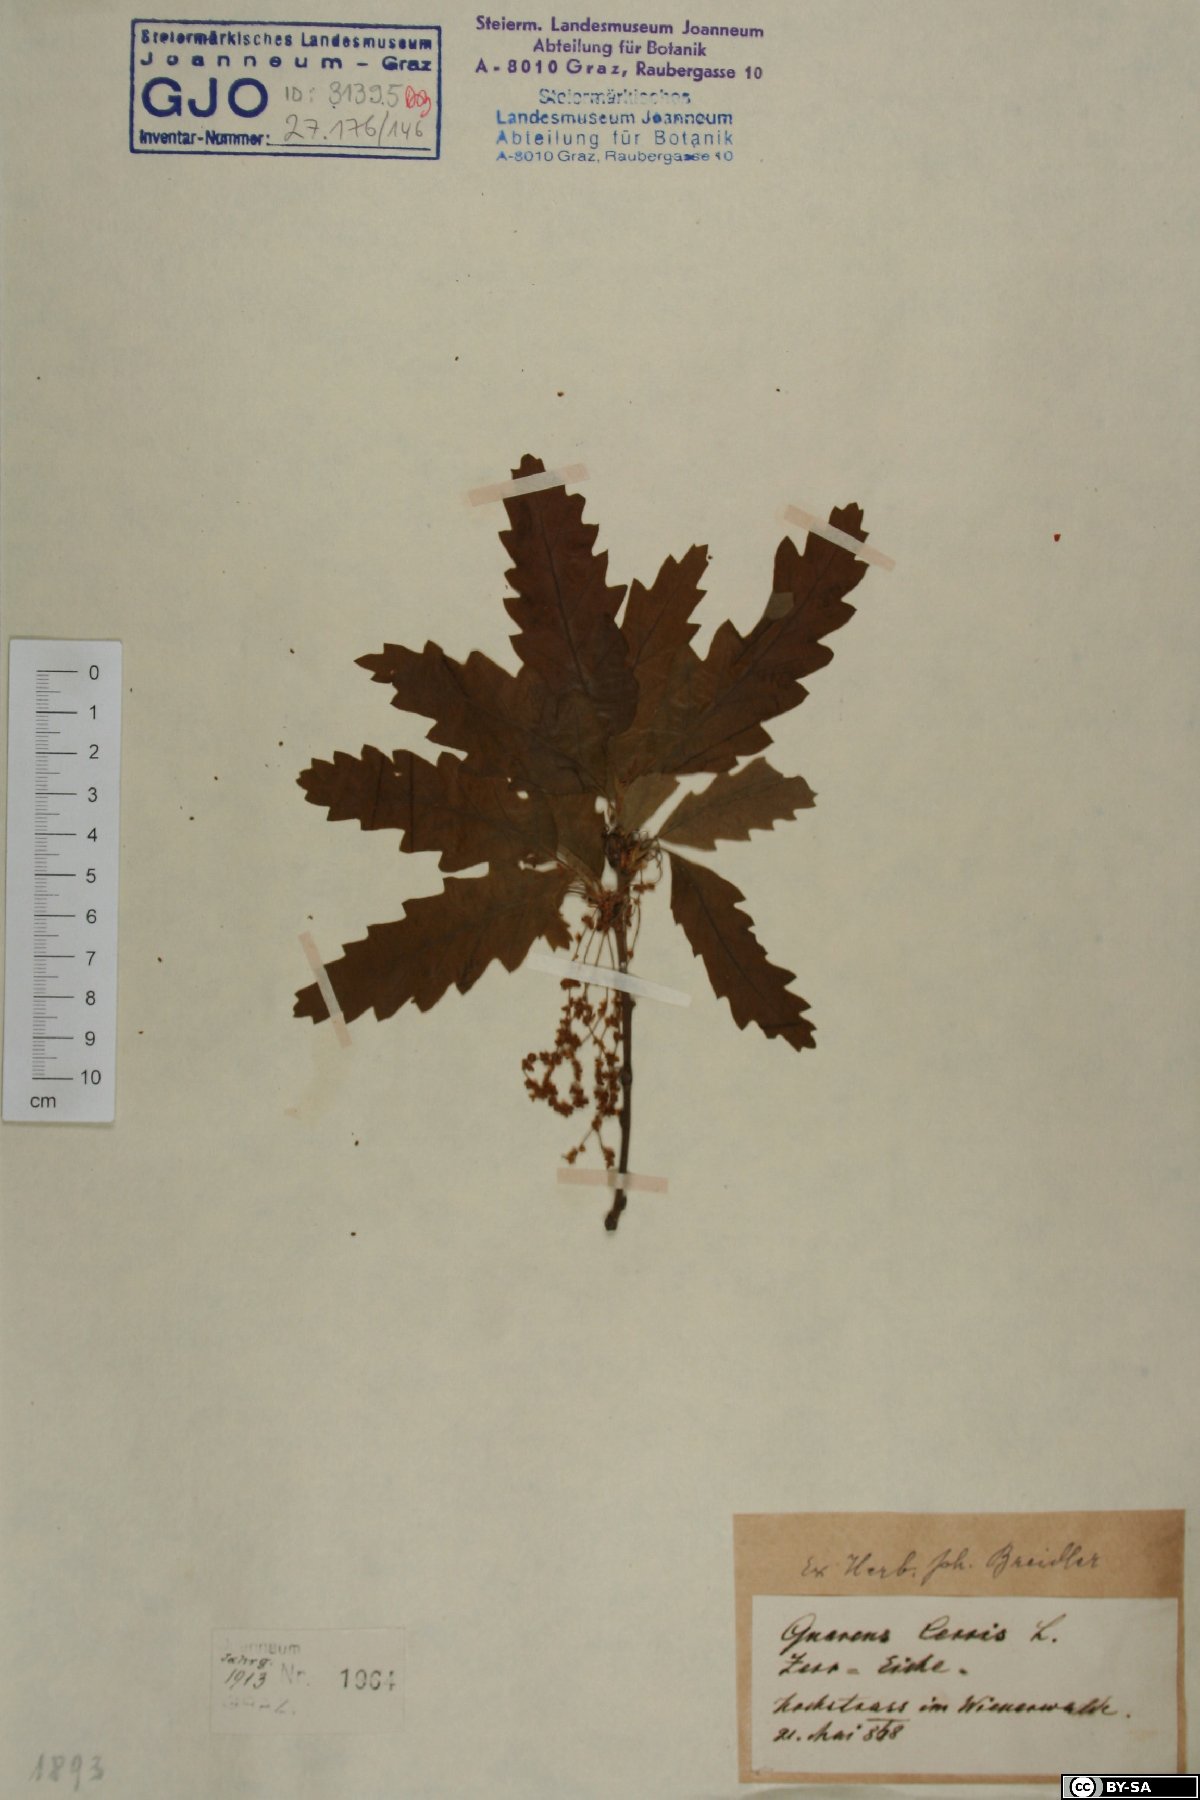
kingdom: Plantae
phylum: Tracheophyta
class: Magnoliopsida
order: Fagales
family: Fagaceae
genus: Quercus
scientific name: Quercus cerris
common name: Turkey oak
